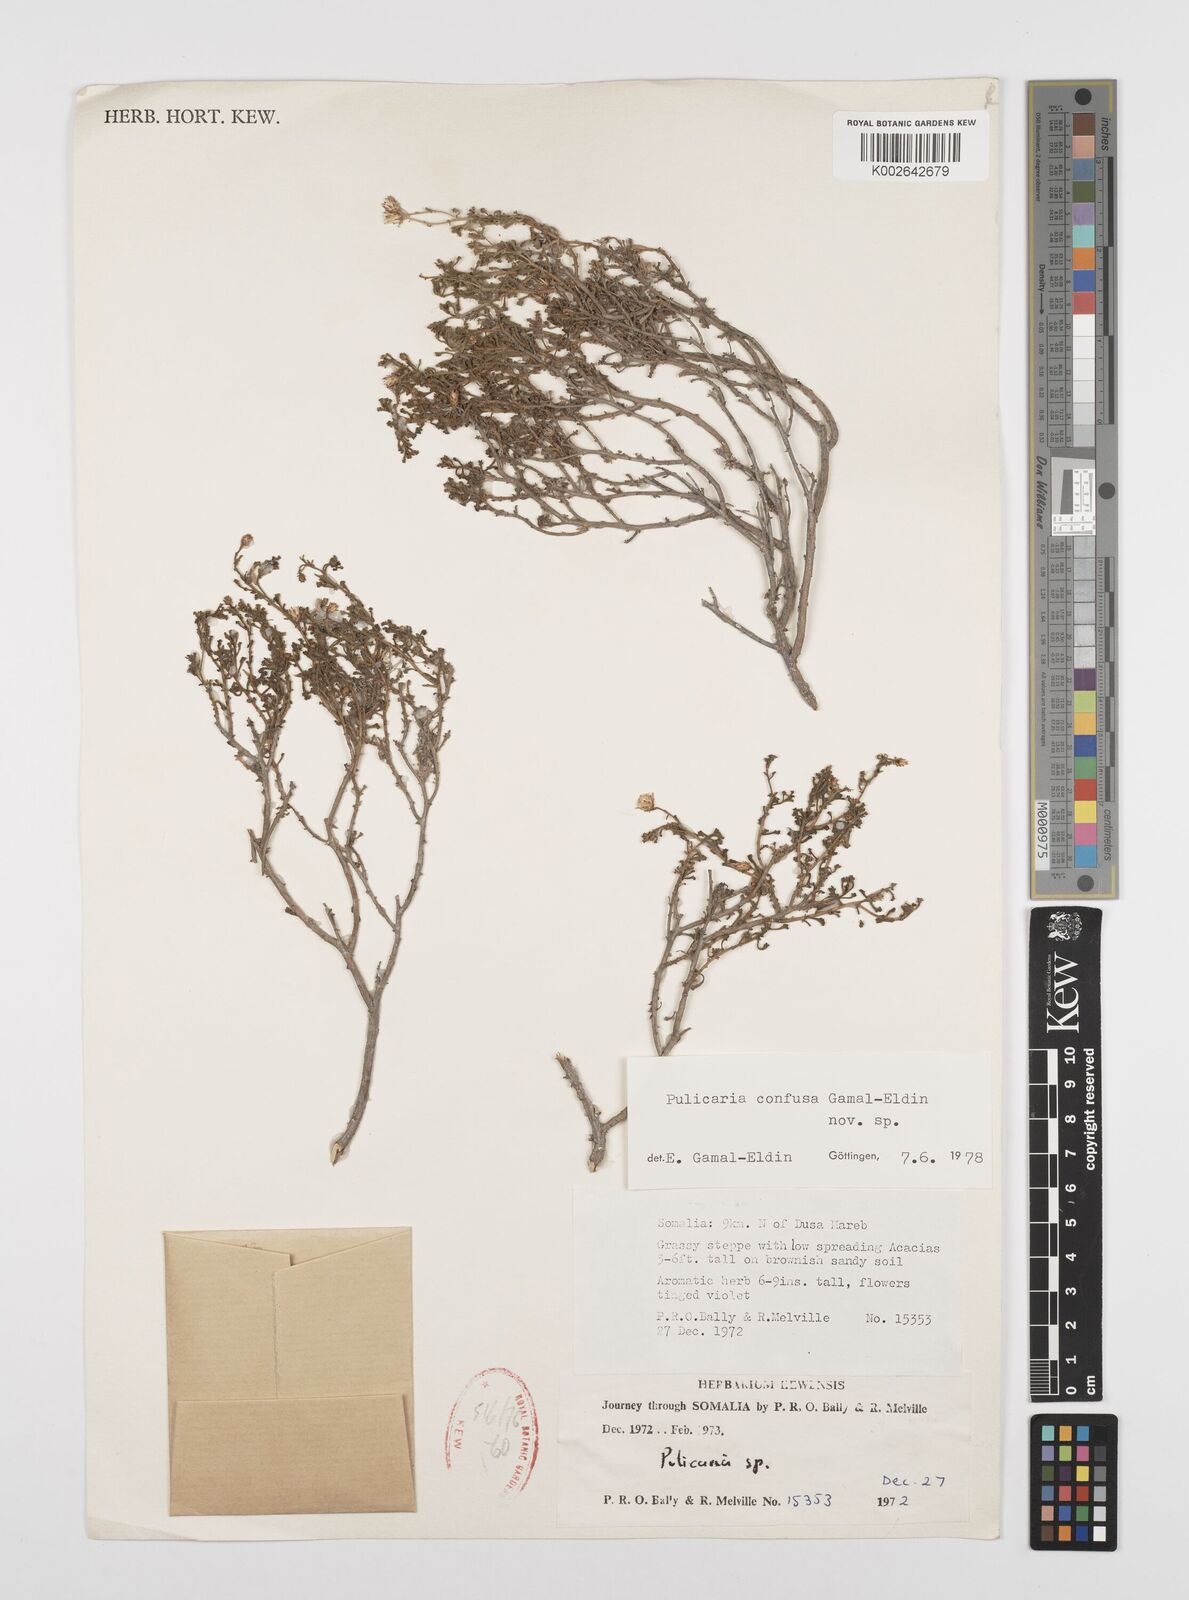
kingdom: Plantae
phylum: Tracheophyta
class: Magnoliopsida
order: Asterales
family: Asteraceae
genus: Pulicaria
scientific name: Pulicaria confusa
